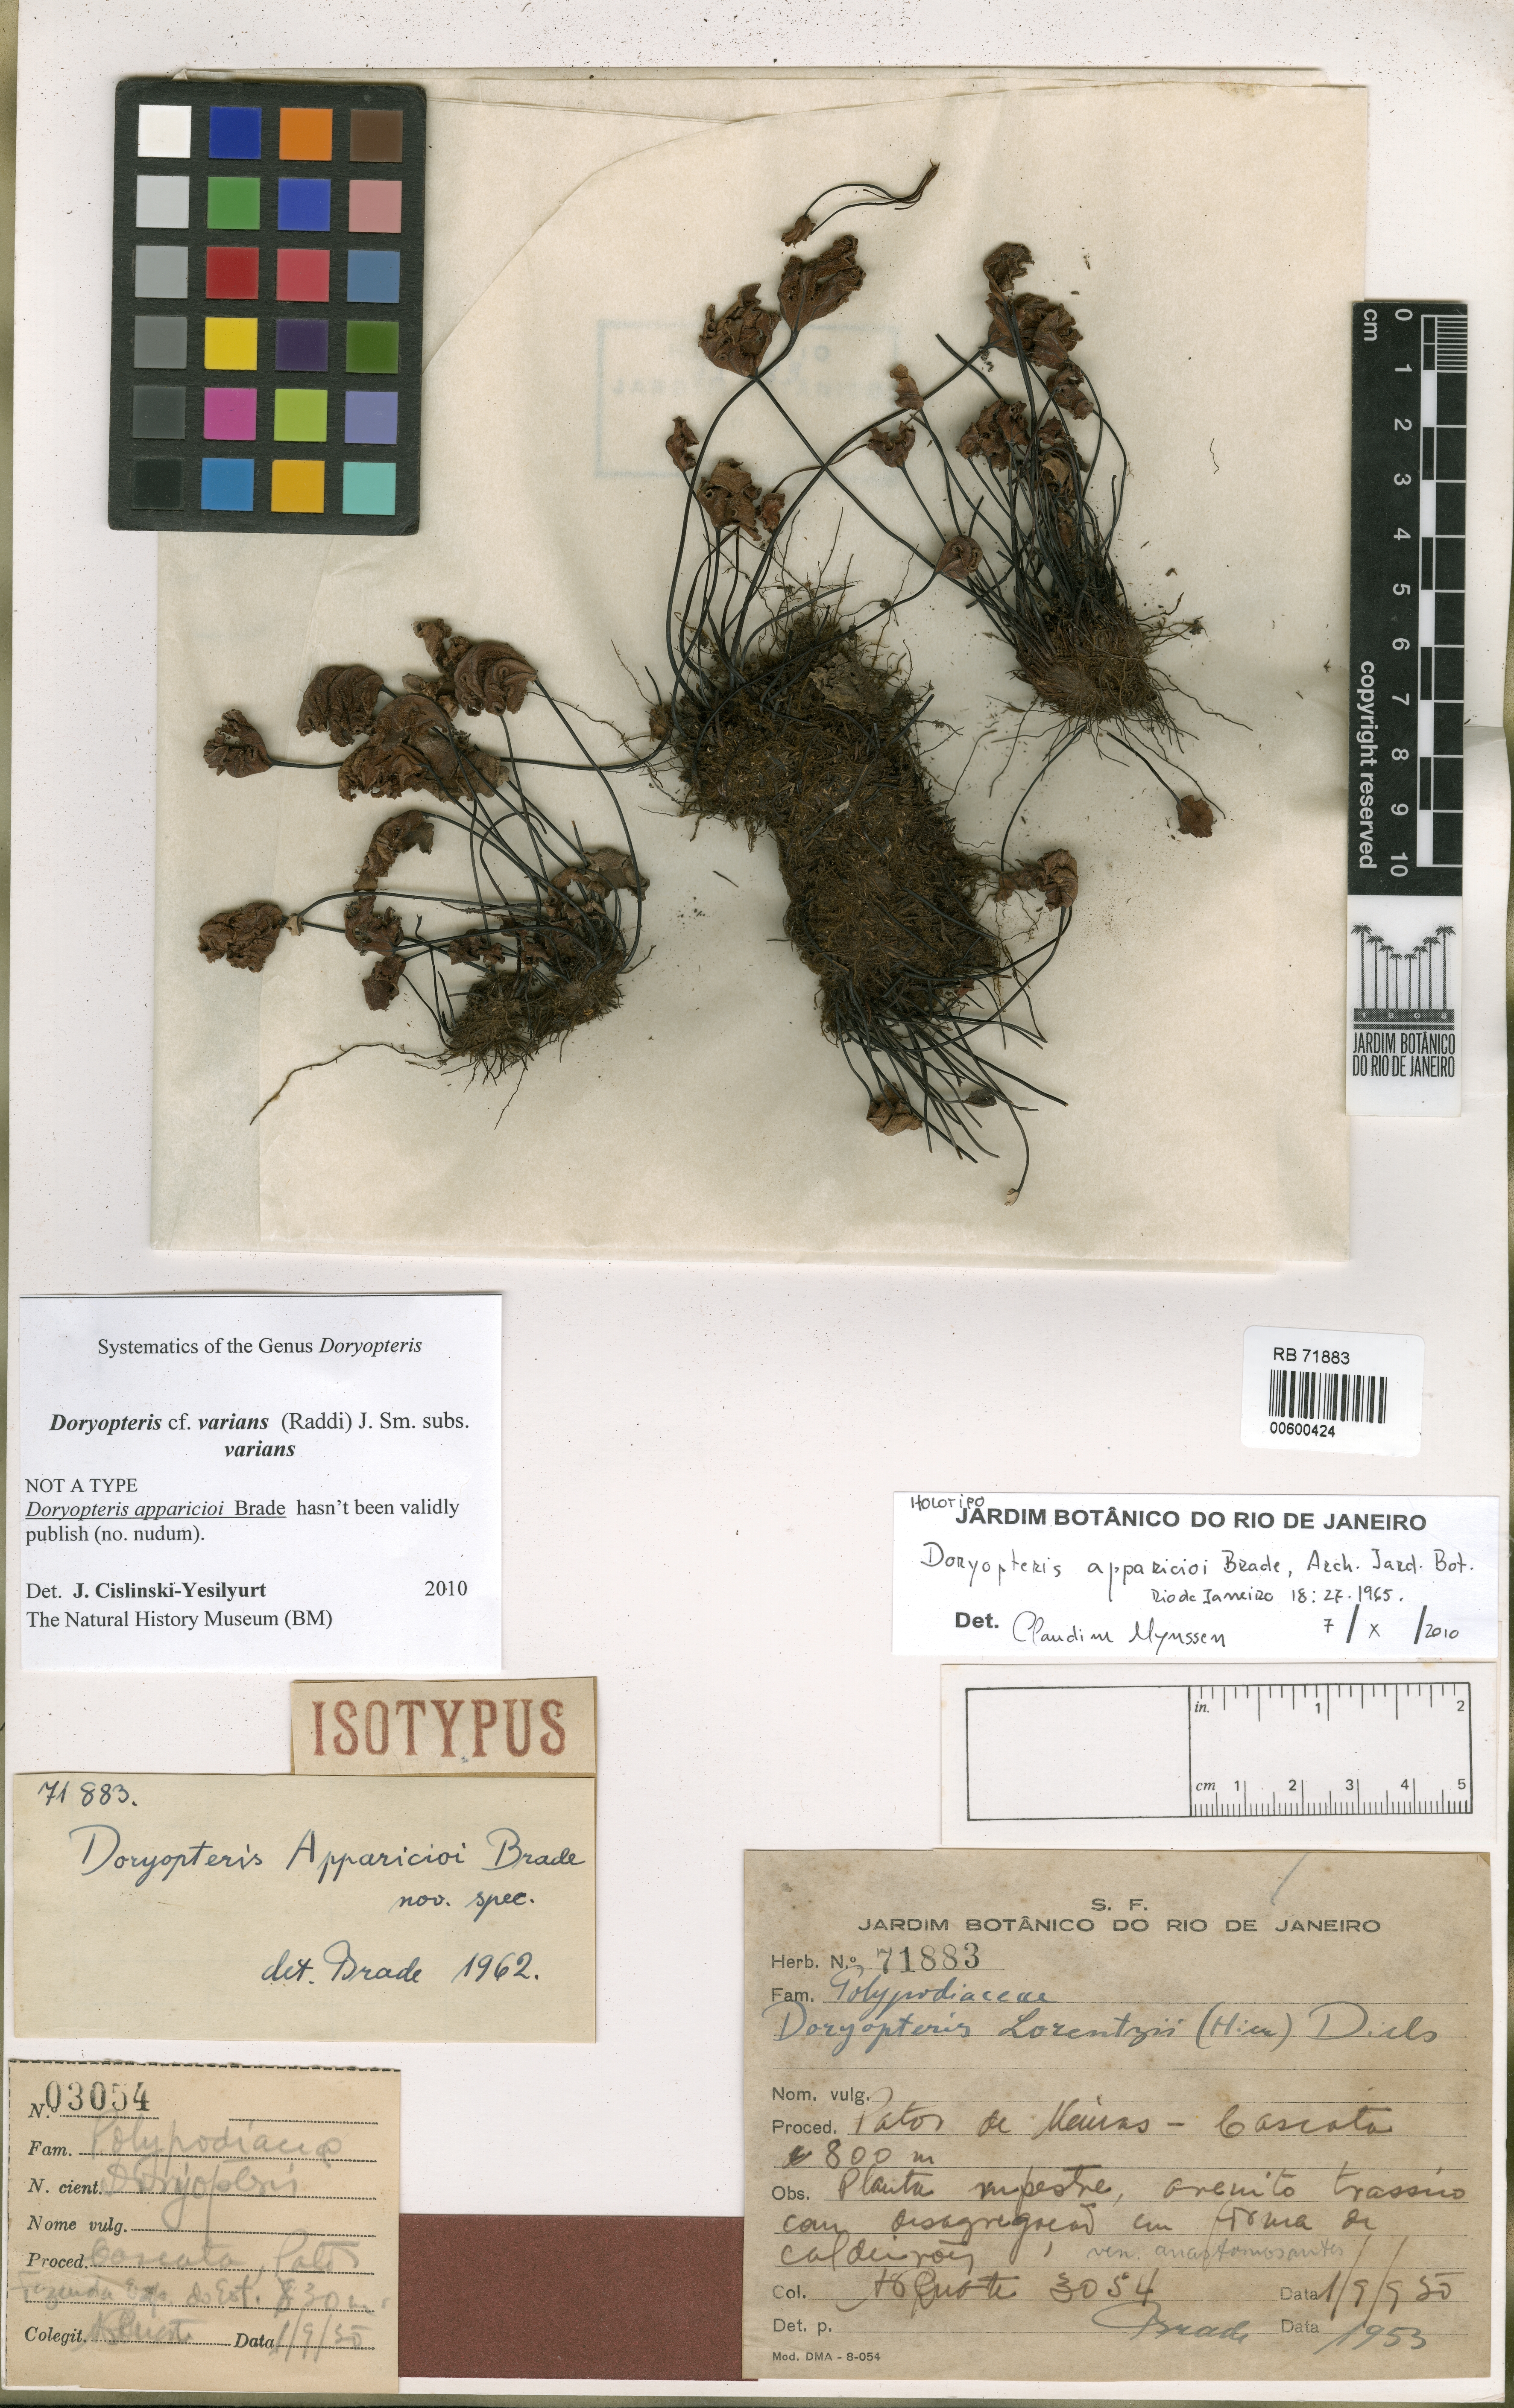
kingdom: Plantae
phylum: Tracheophyta
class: Polypodiopsida
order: Polypodiales
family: Pteridaceae
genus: Doryopteris
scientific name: Doryopteris apparicioi
